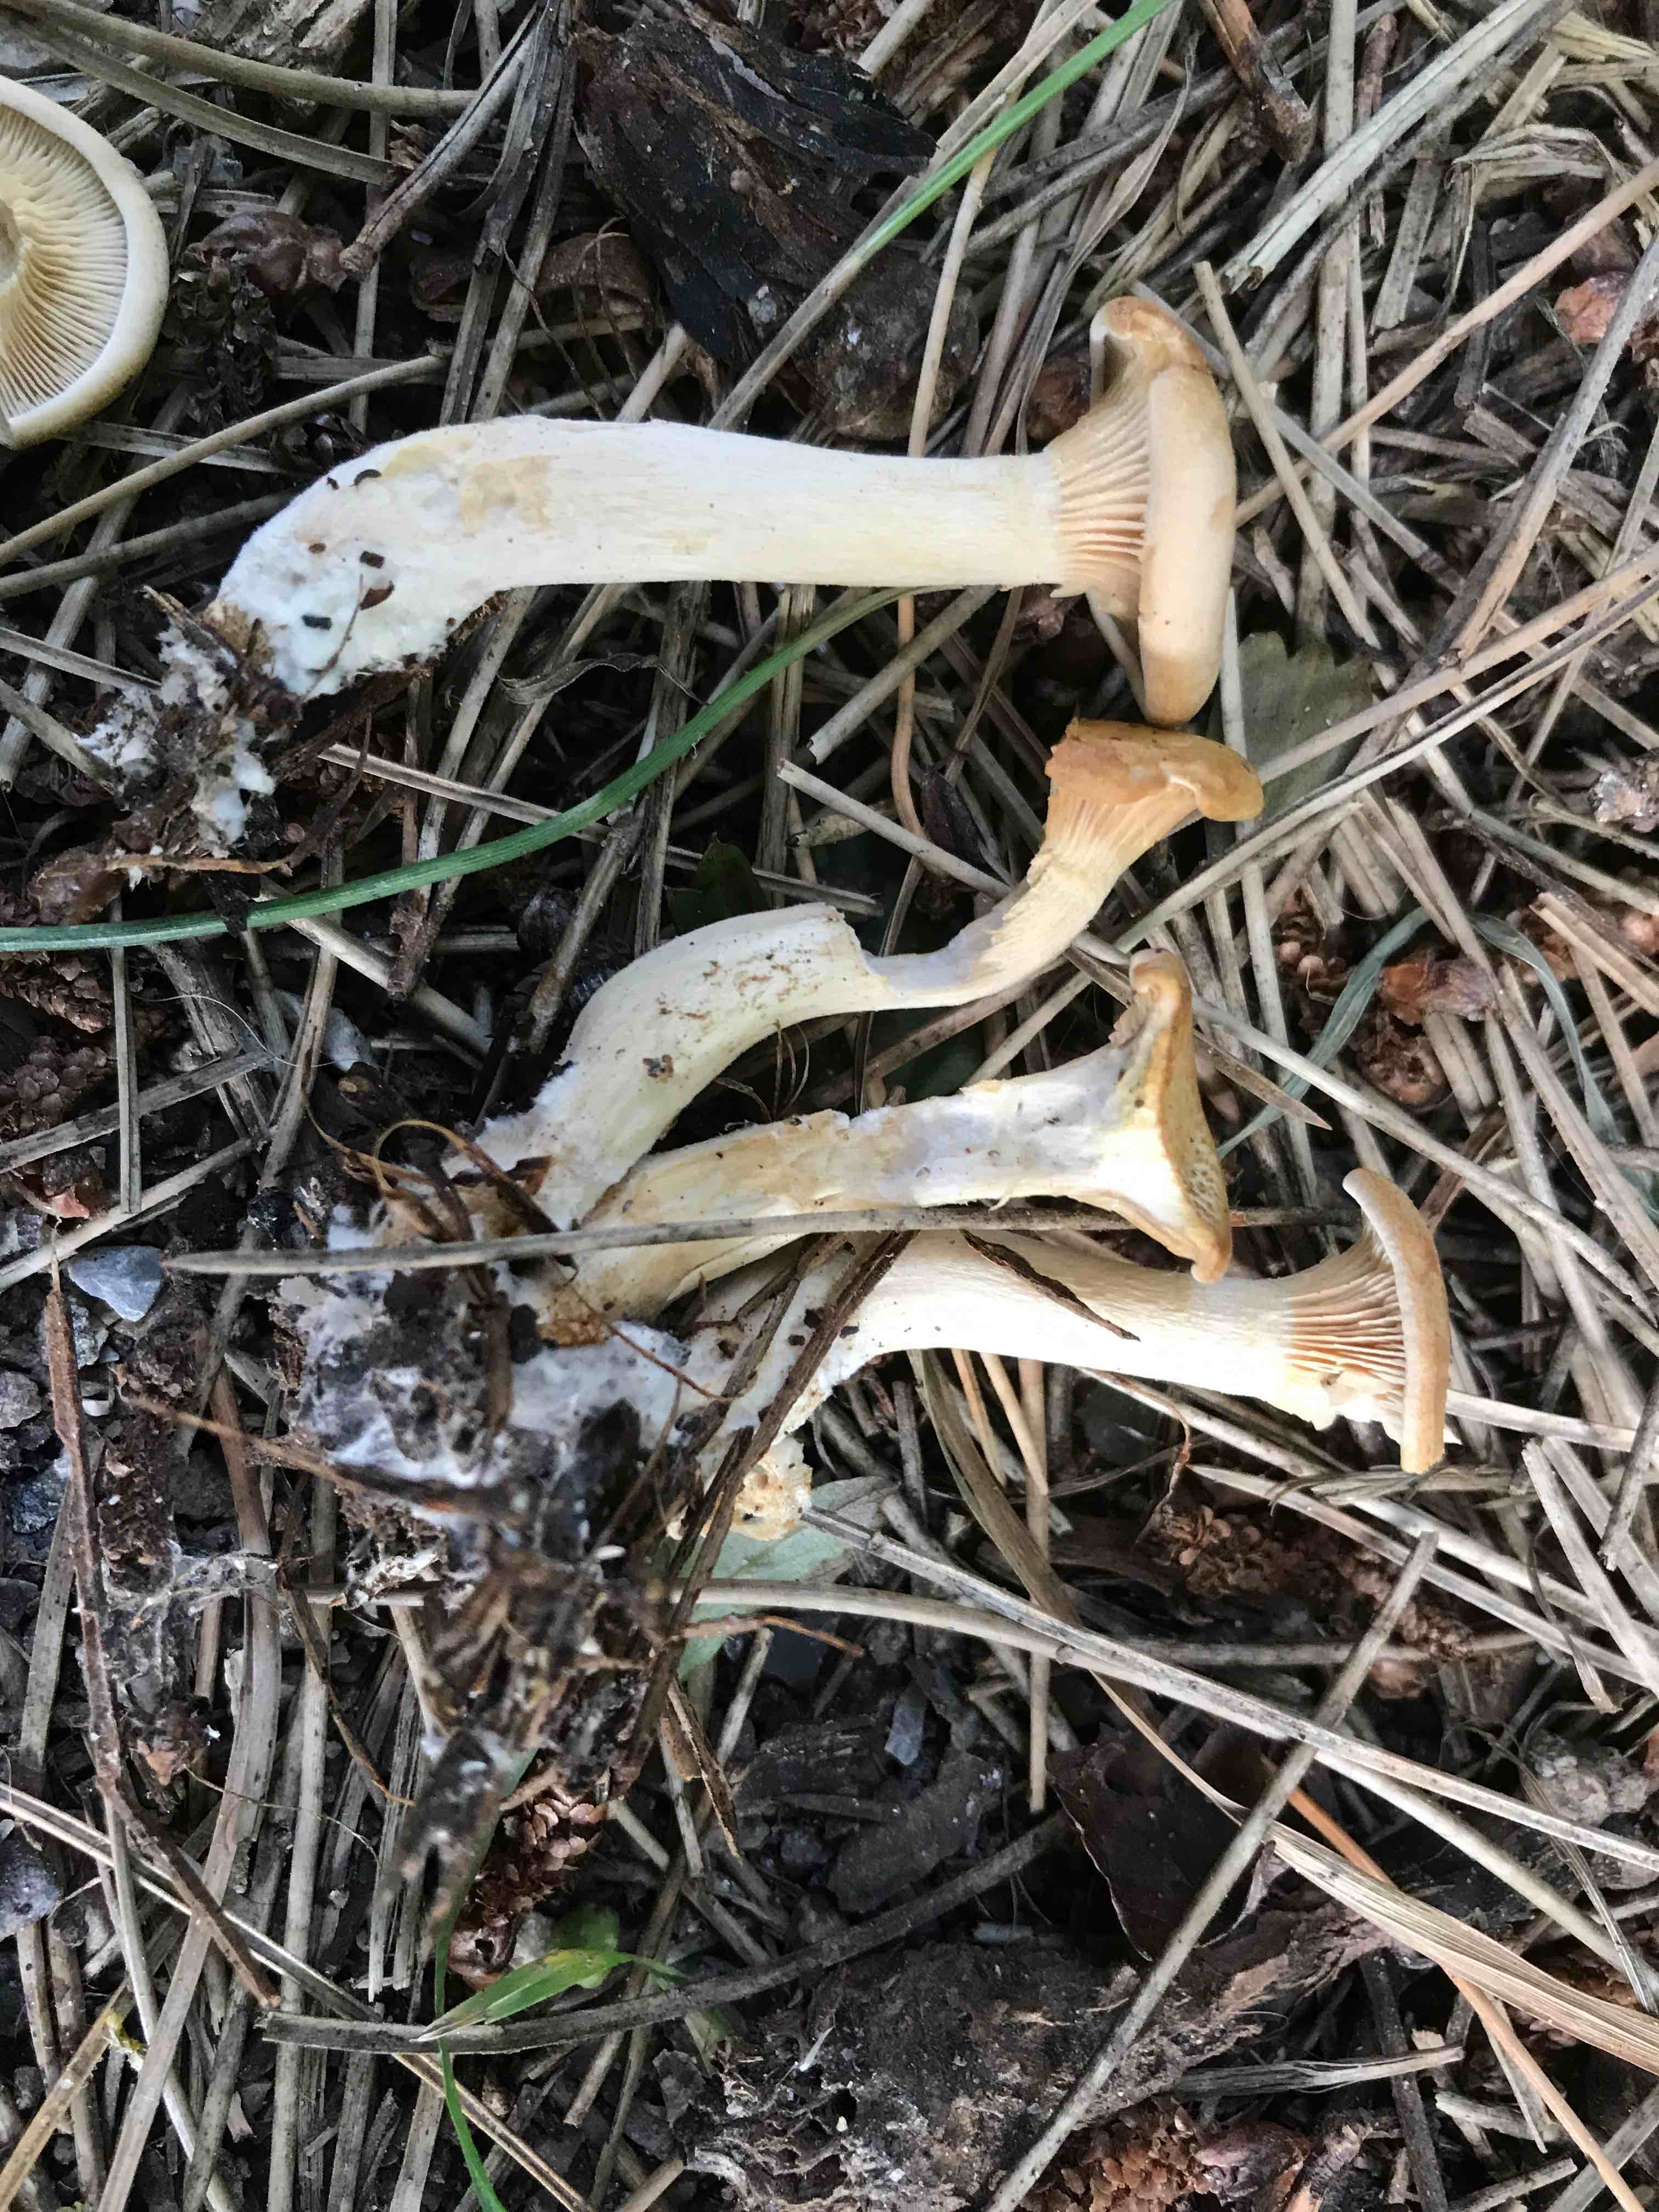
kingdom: Fungi
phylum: Basidiomycota
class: Agaricomycetes
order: Agaricales
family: Tricholomataceae
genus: Infundibulicybe
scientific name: Infundibulicybe
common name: tragthat
